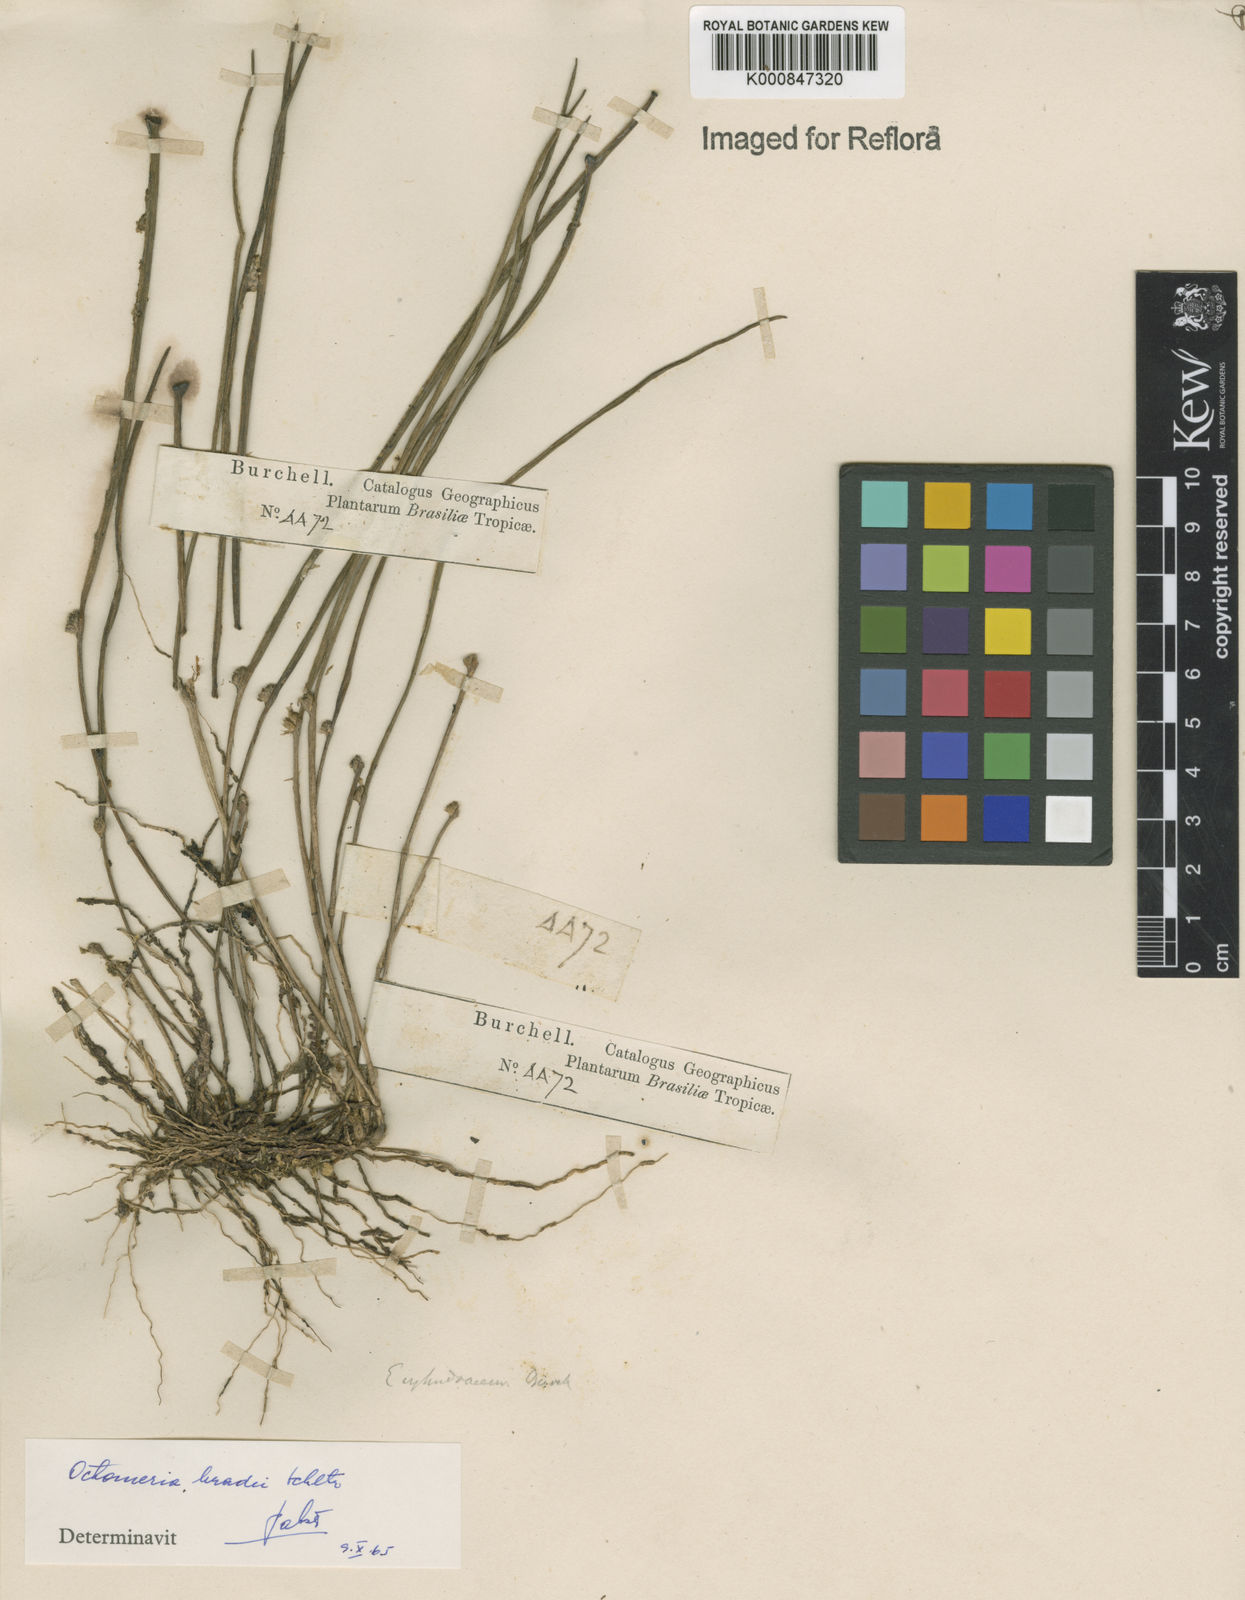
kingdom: Plantae
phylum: Tracheophyta
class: Liliopsida
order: Asparagales
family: Orchidaceae
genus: Octomeria
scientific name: Octomeria bradei
